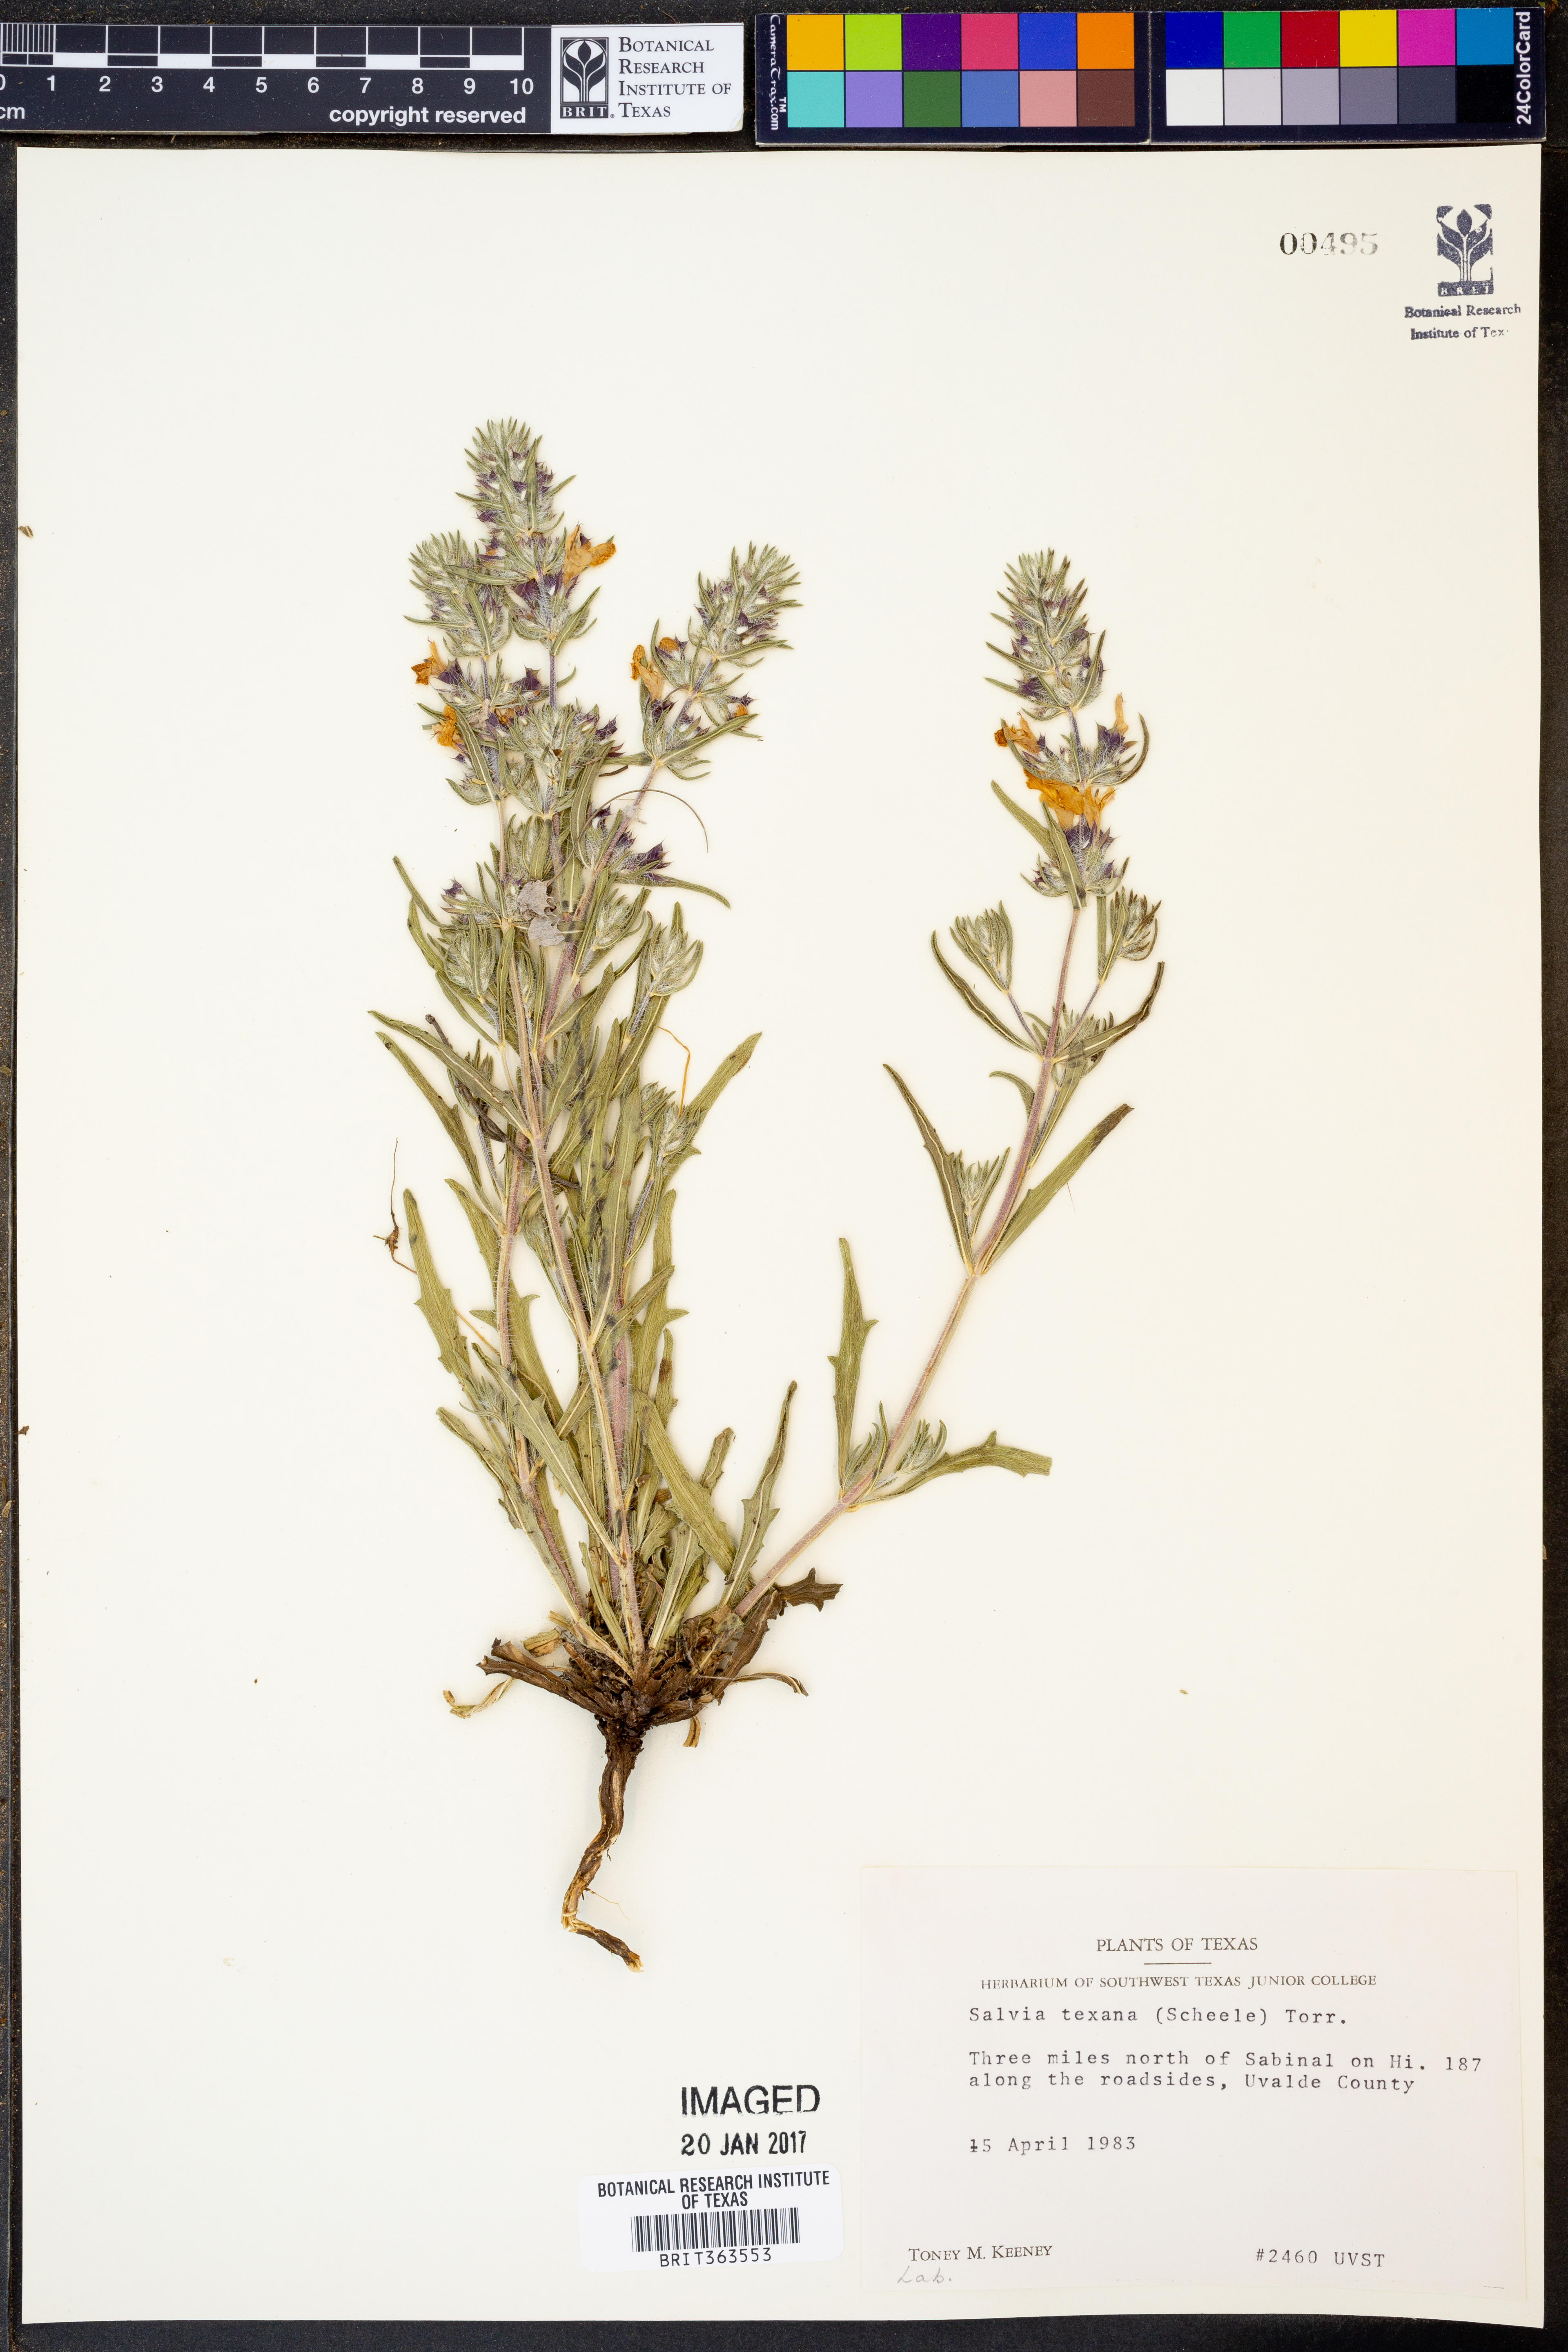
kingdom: Plantae
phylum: Tracheophyta
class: Magnoliopsida
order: Lamiales
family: Lamiaceae
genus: Salvia
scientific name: Salvia texana
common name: Texas sage
